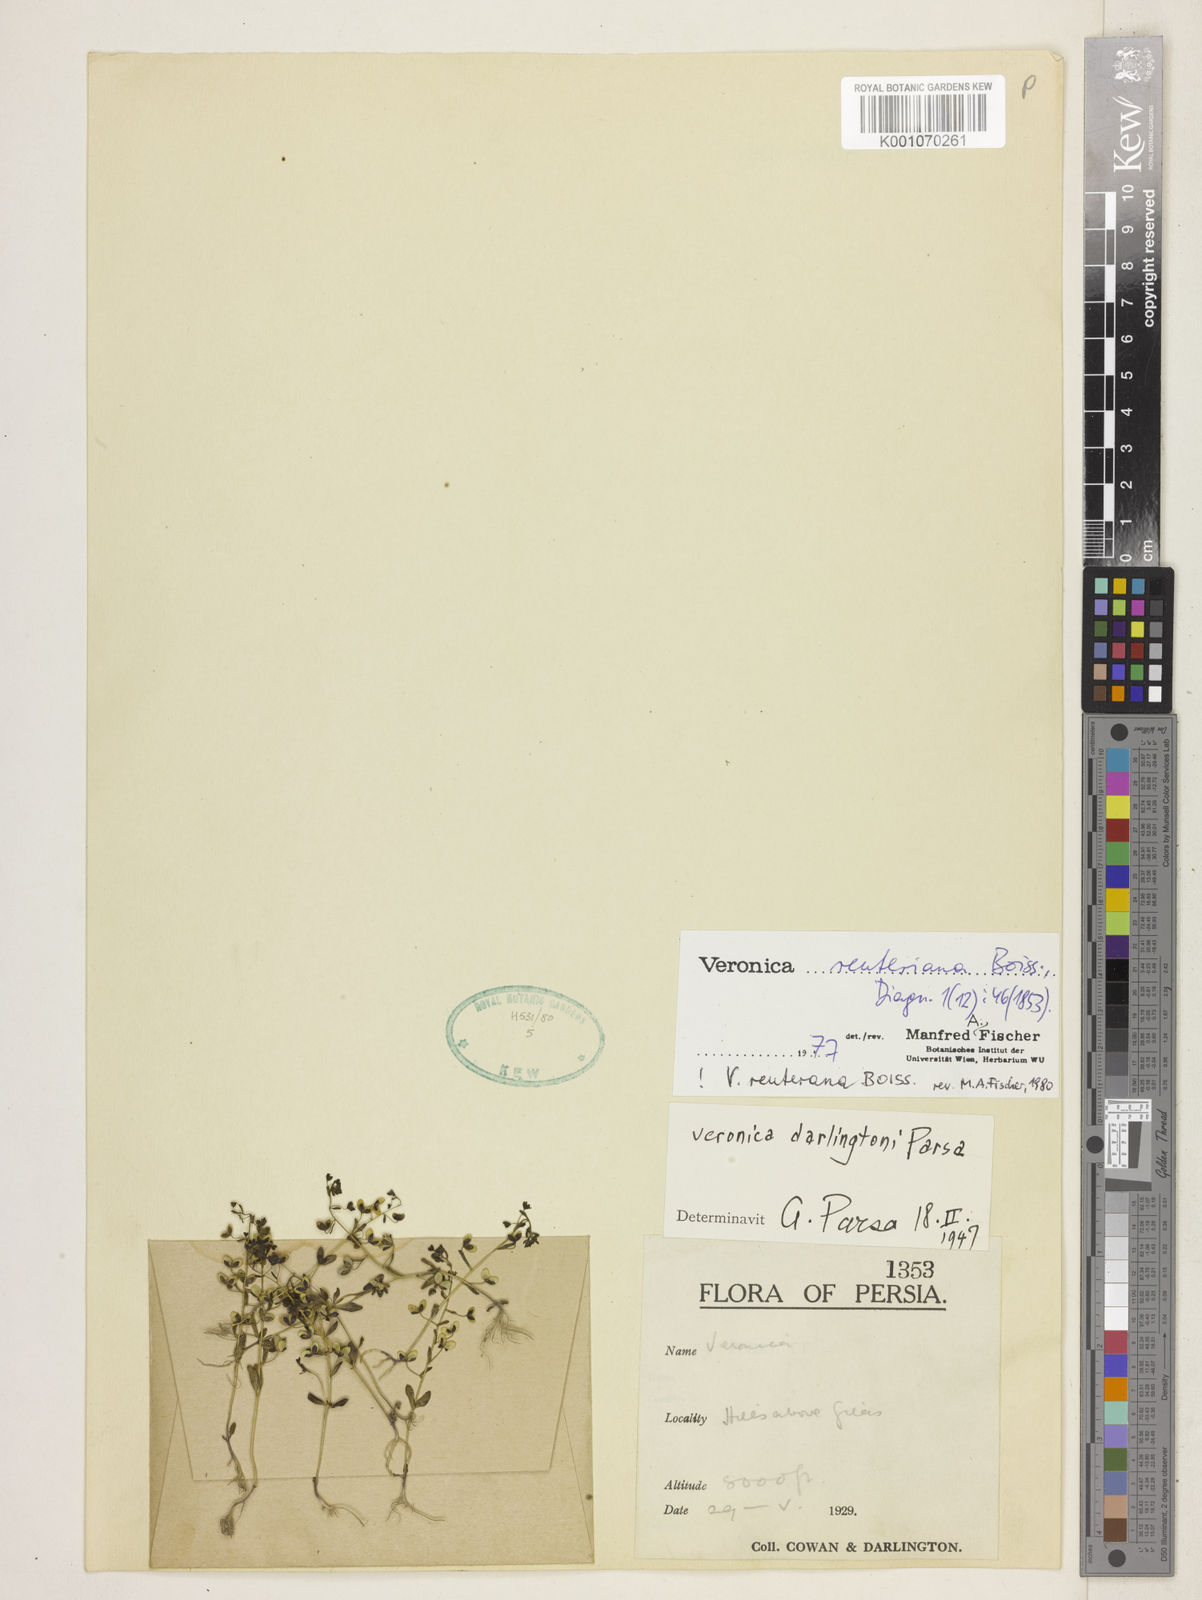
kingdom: Plantae
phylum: Tracheophyta
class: Magnoliopsida
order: Lamiales
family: Plantaginaceae
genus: Veronica
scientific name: Veronica reuteriana
